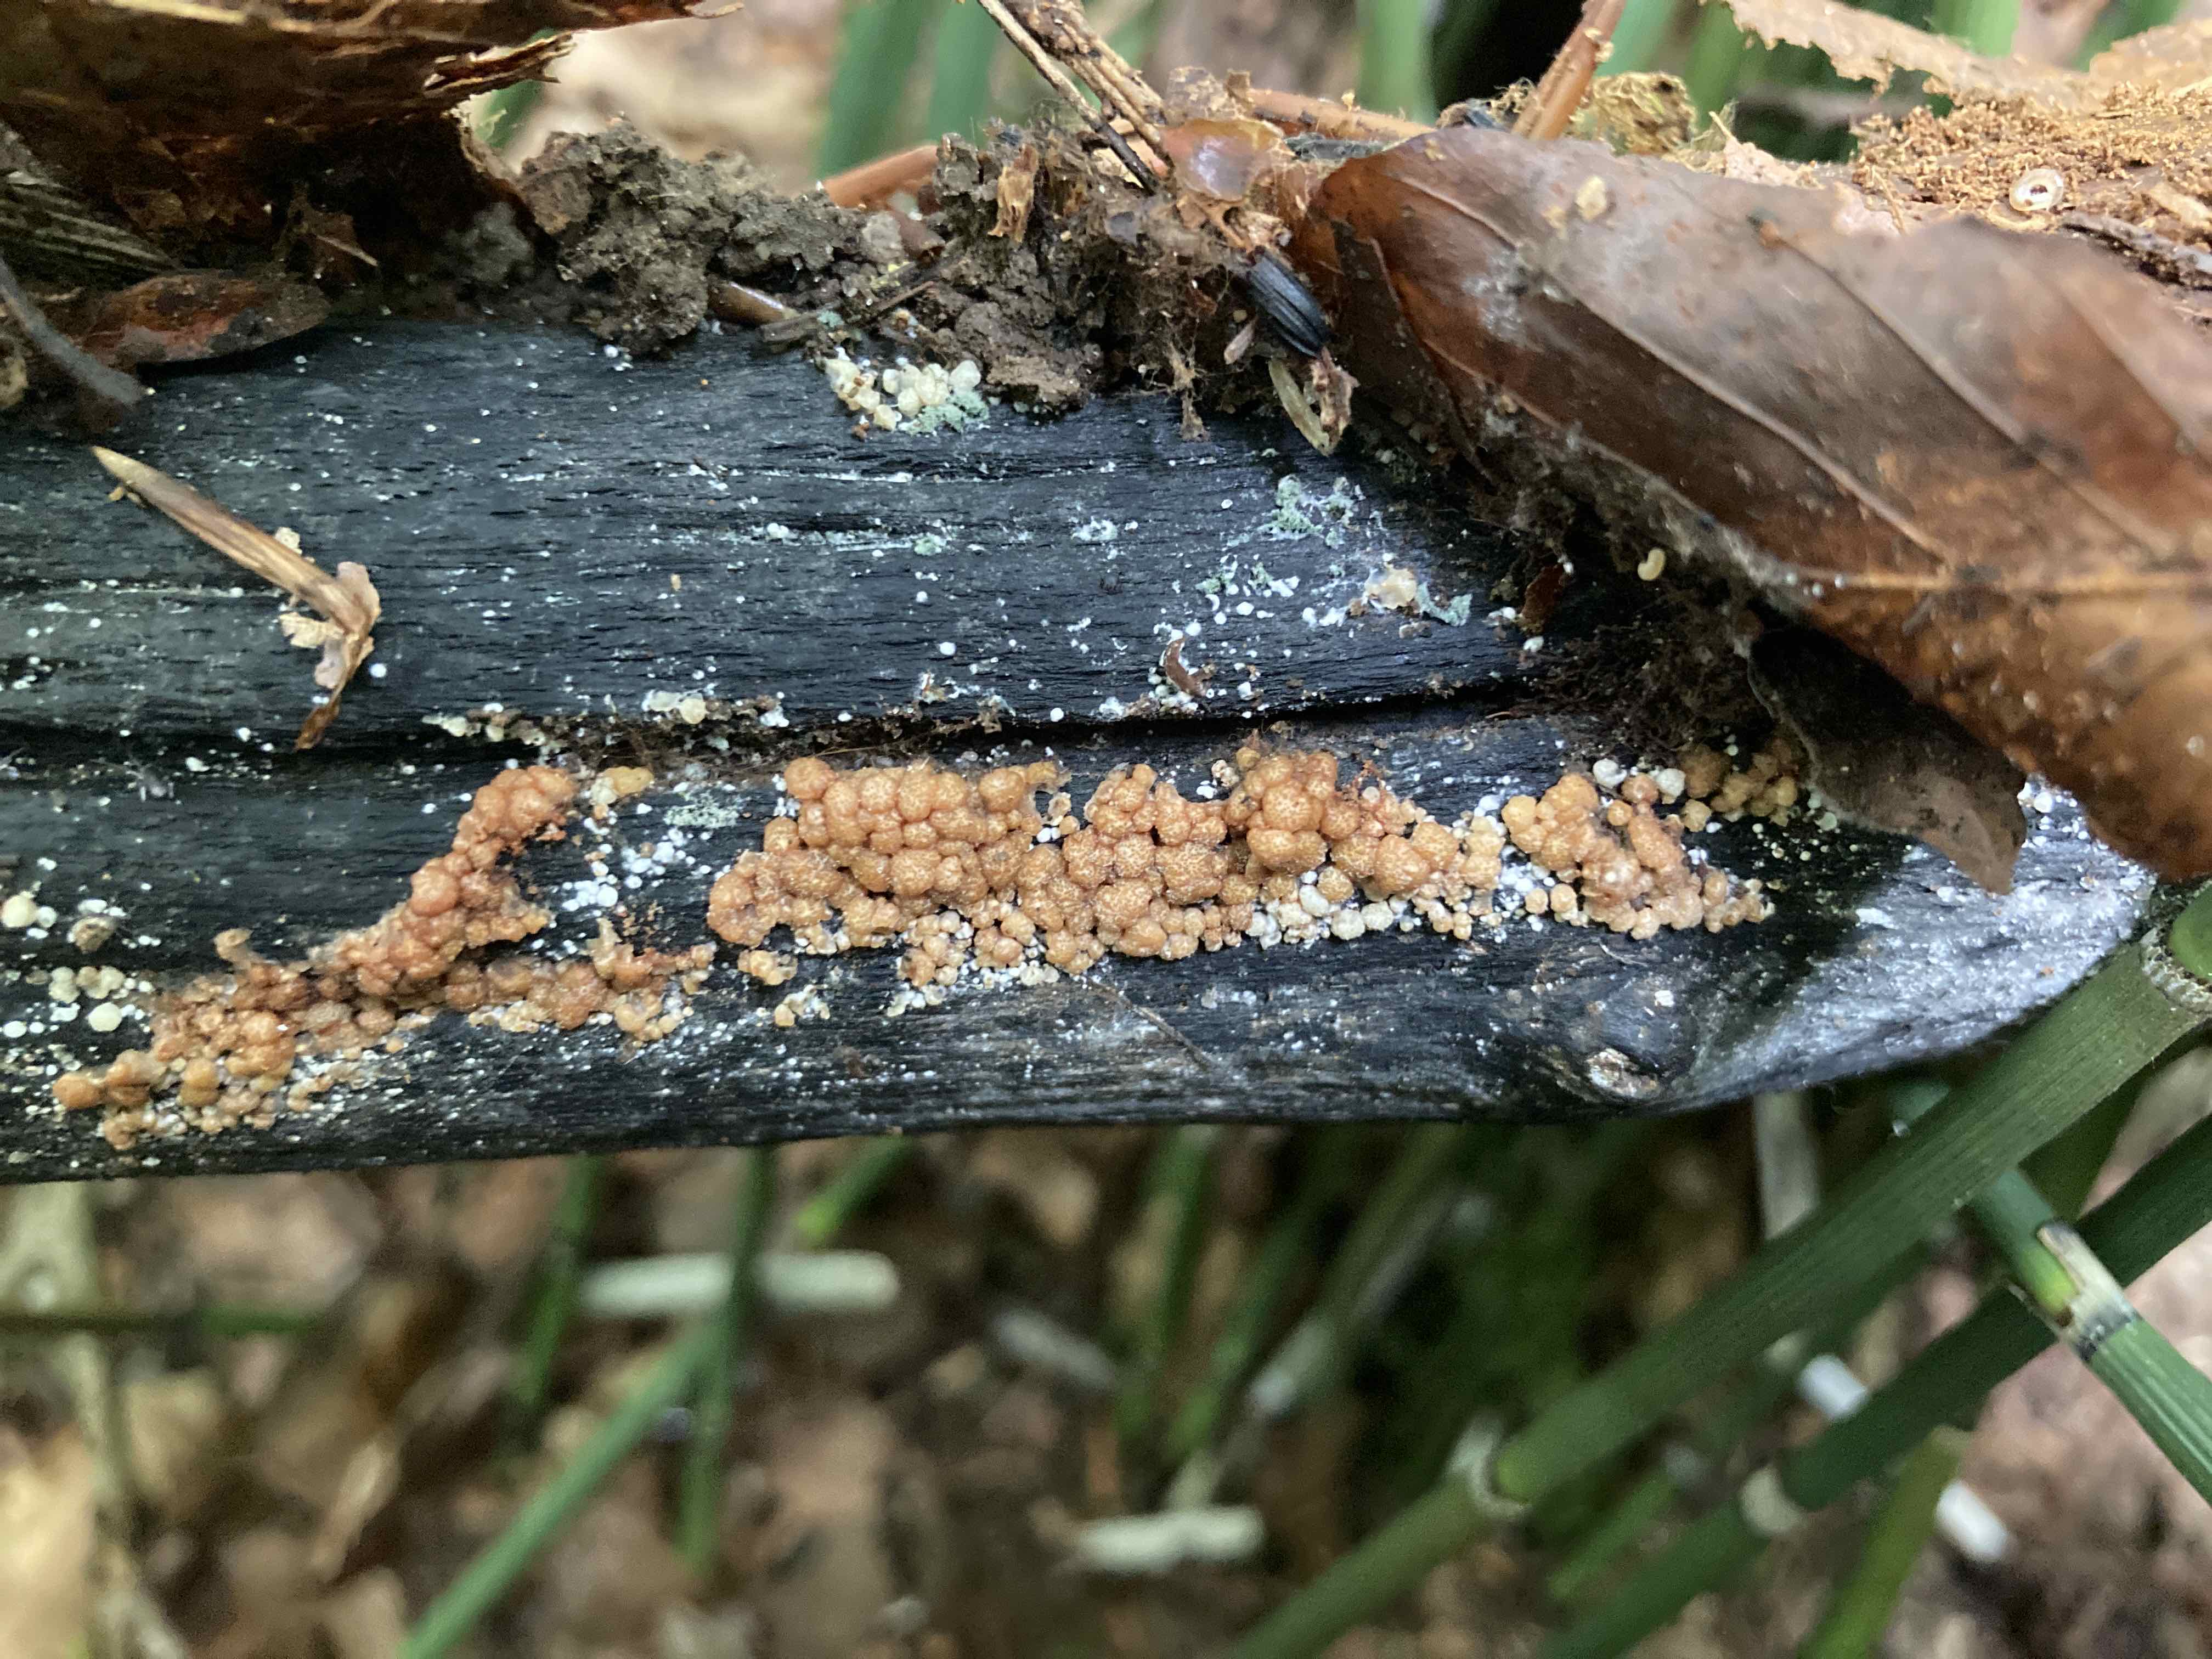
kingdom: Fungi
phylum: Ascomycota
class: Sordariomycetes
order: Hypocreales
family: Hypocreaceae
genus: Trichoderma
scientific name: Trichoderma silvae-virgineae
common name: urskovs-kødkerne
